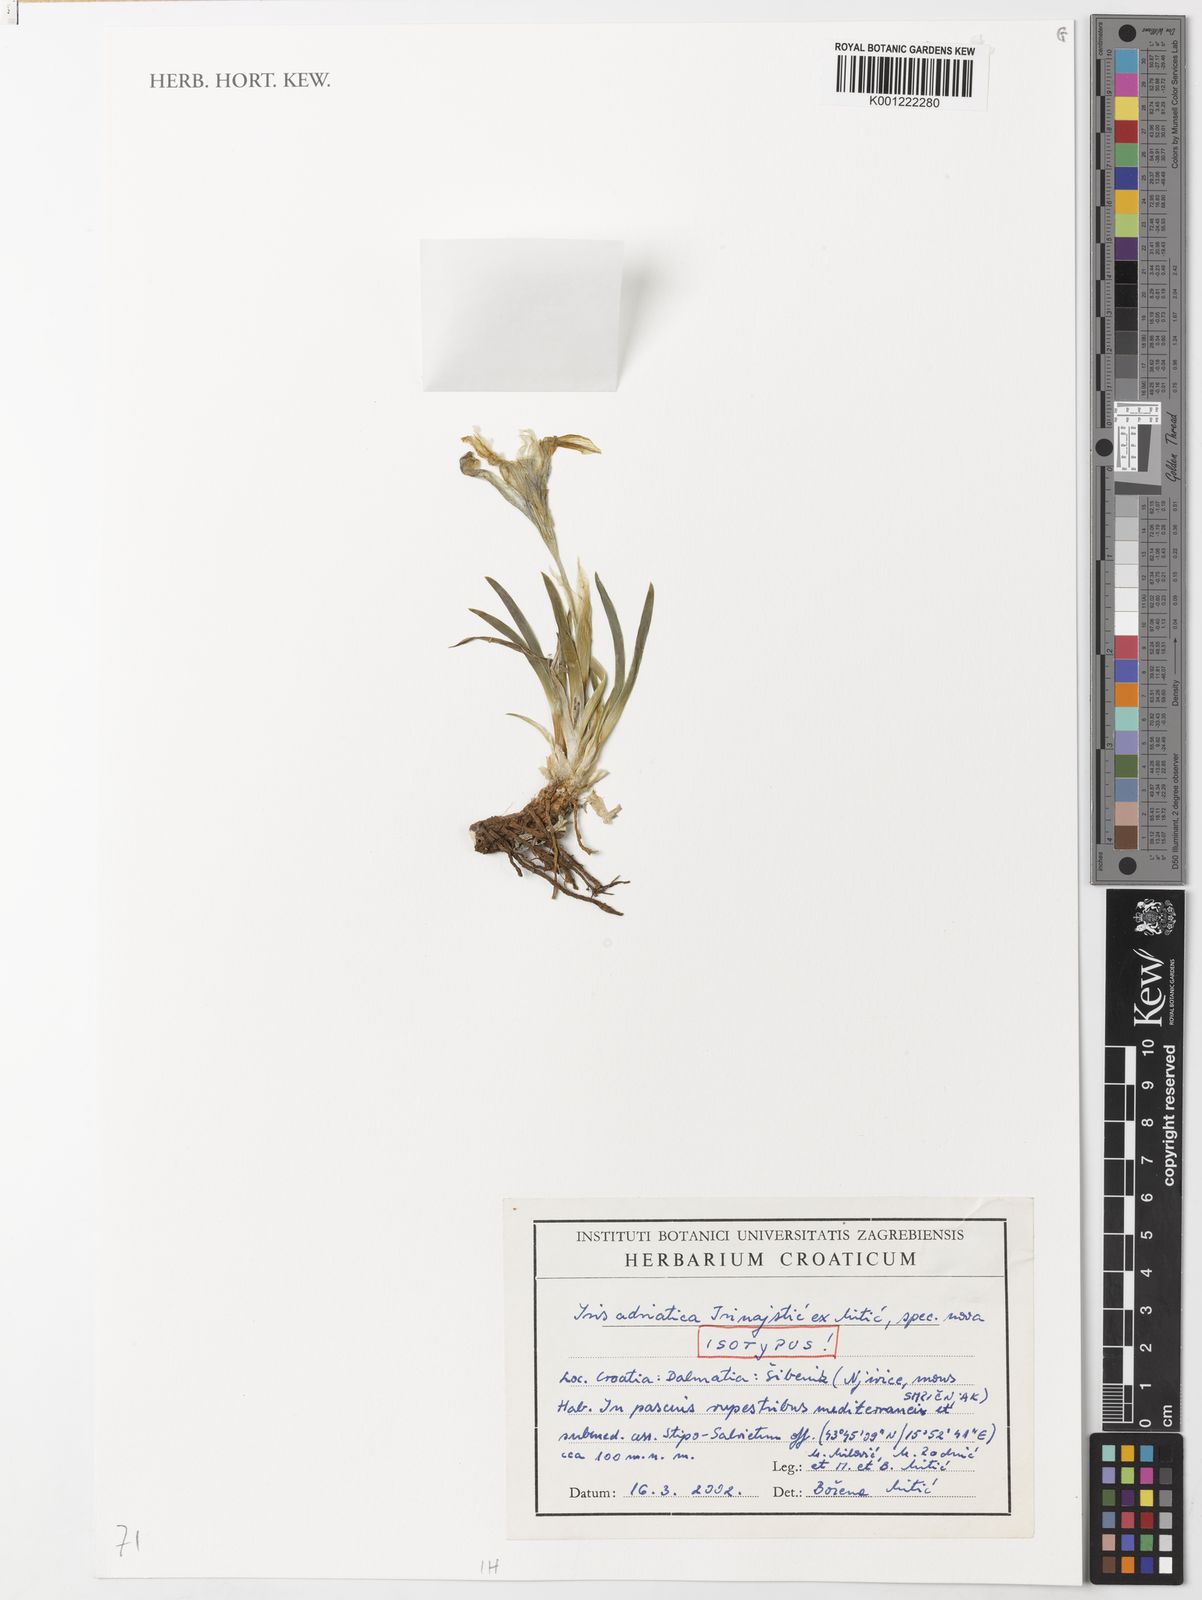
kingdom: Plantae
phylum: Tracheophyta
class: Liliopsida
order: Asparagales
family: Iridaceae
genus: Iris
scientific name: Iris adriatica
